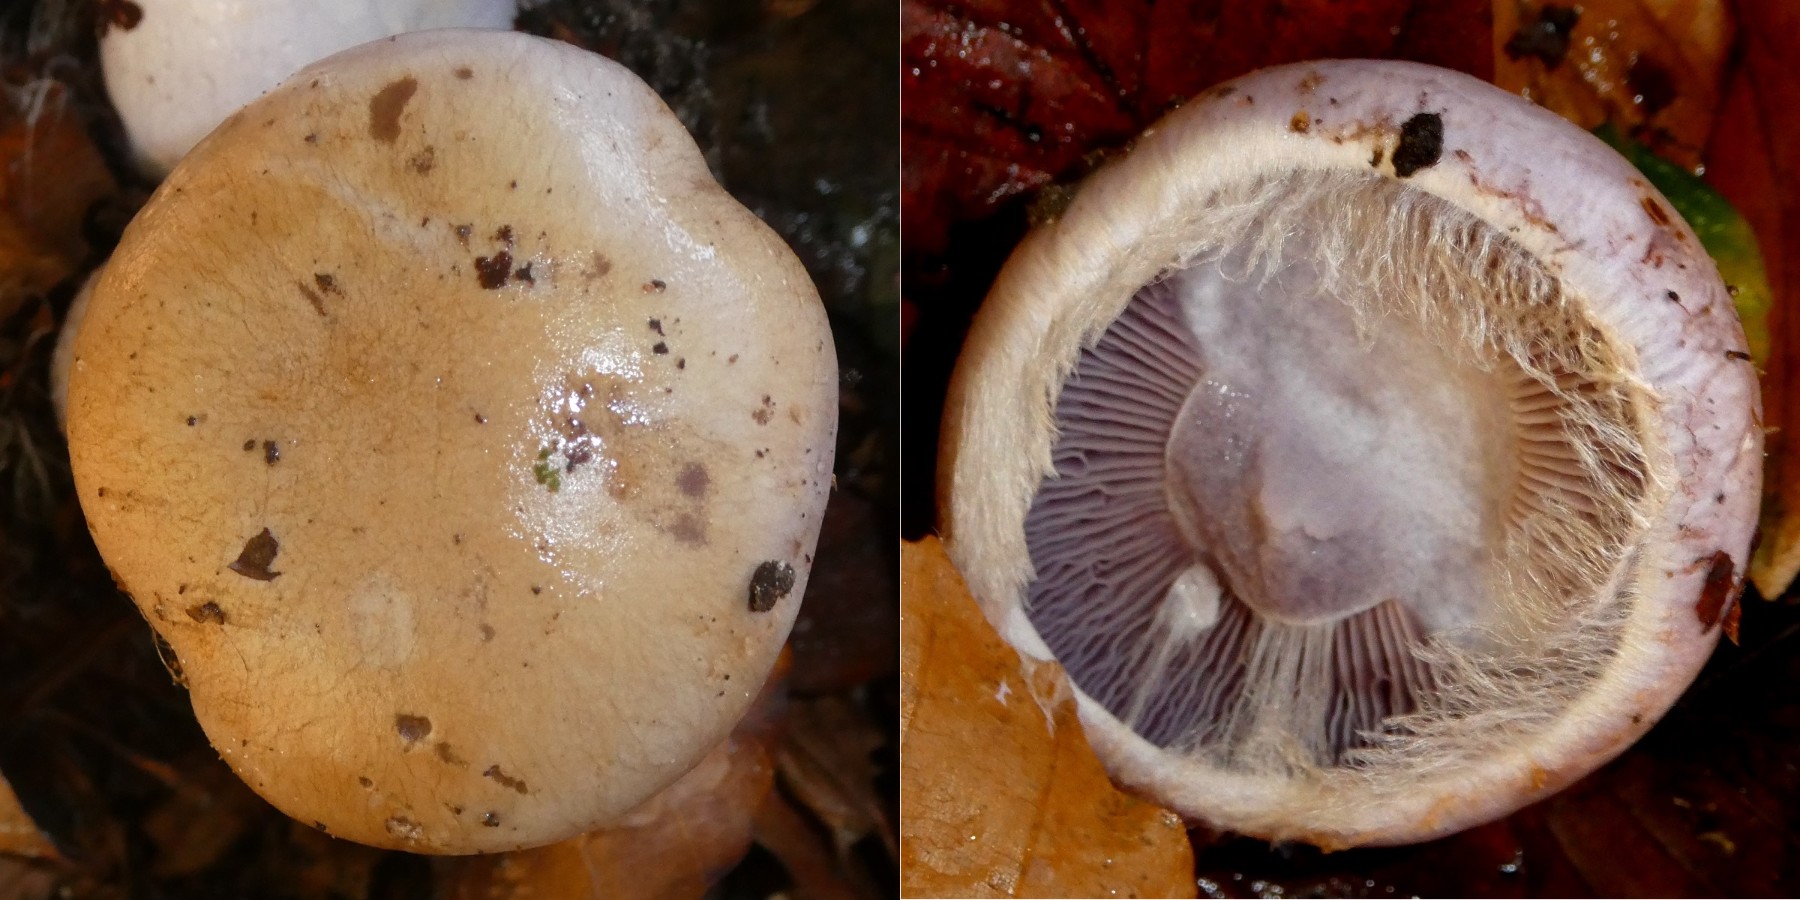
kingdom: Fungi
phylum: Basidiomycota
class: Agaricomycetes
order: Agaricales
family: Cortinariaceae
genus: Cortinarius
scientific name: Cortinarius anserinus
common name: bøge-slørhat
